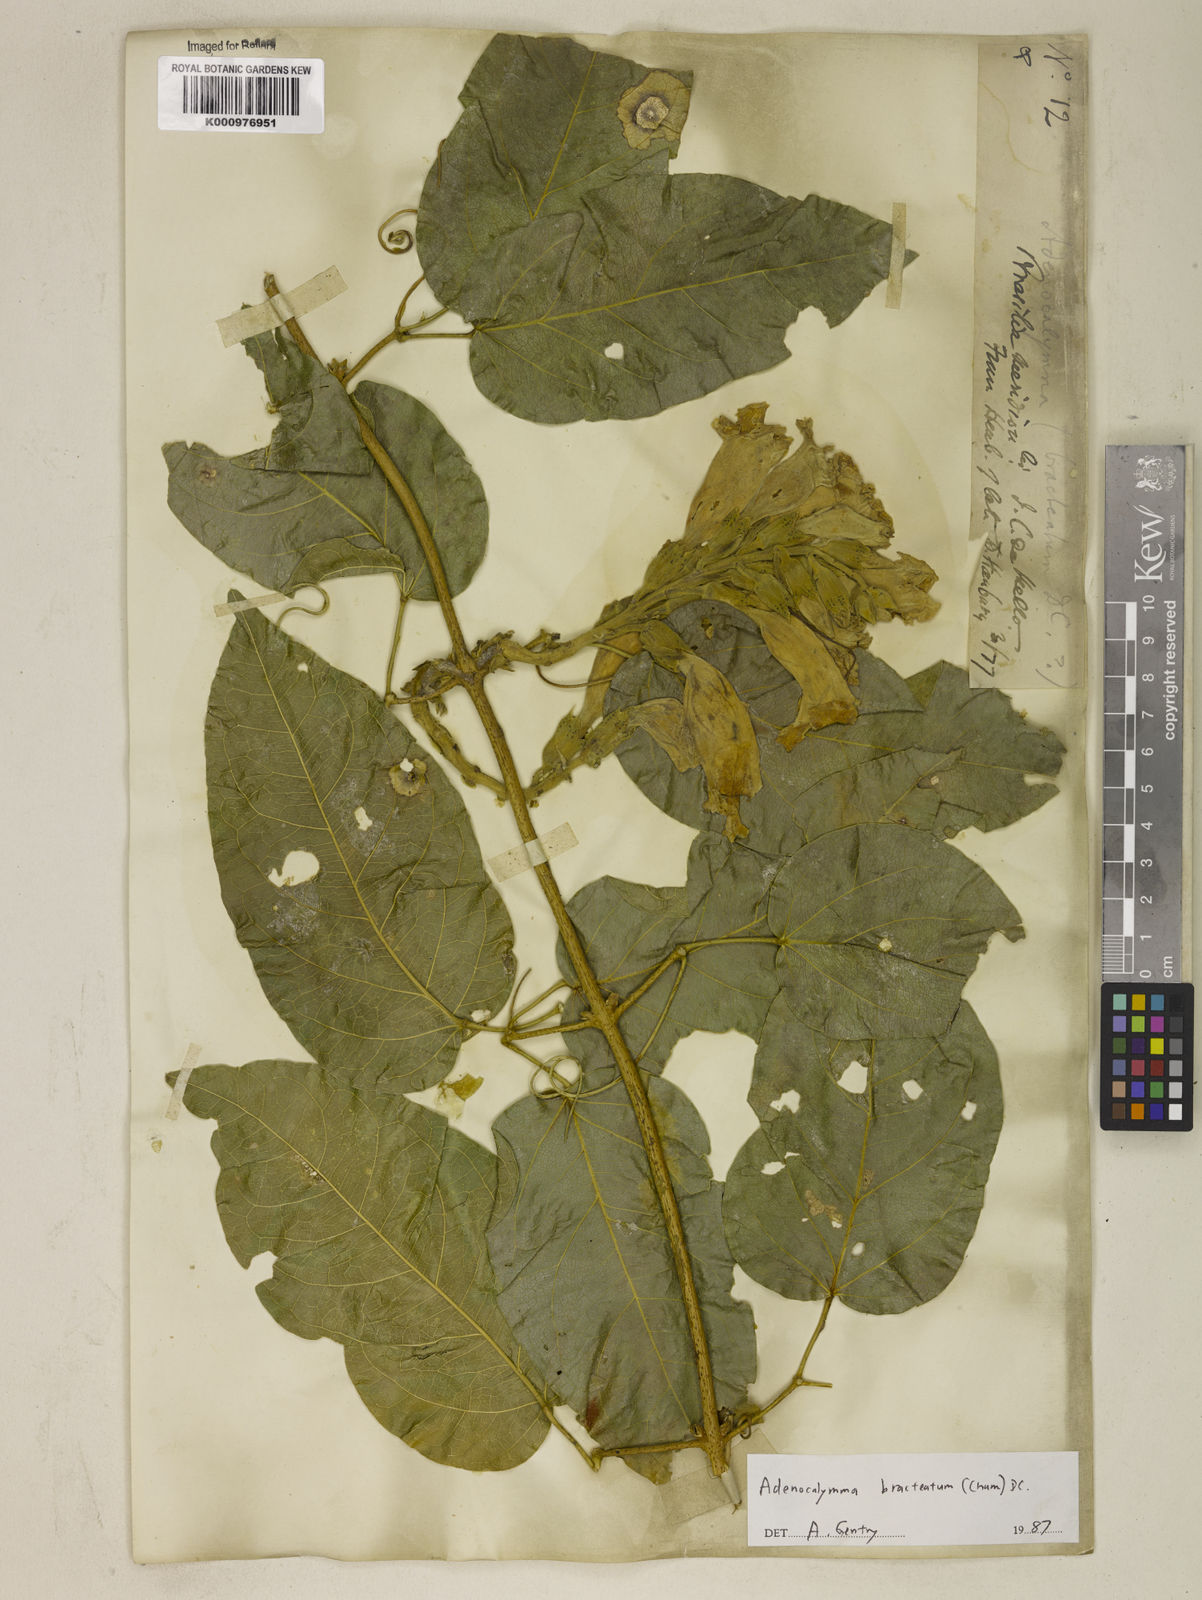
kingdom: Plantae
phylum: Tracheophyta
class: Magnoliopsida
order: Lamiales
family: Bignoniaceae
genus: Adenocalymma
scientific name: Adenocalymma bracteatum
